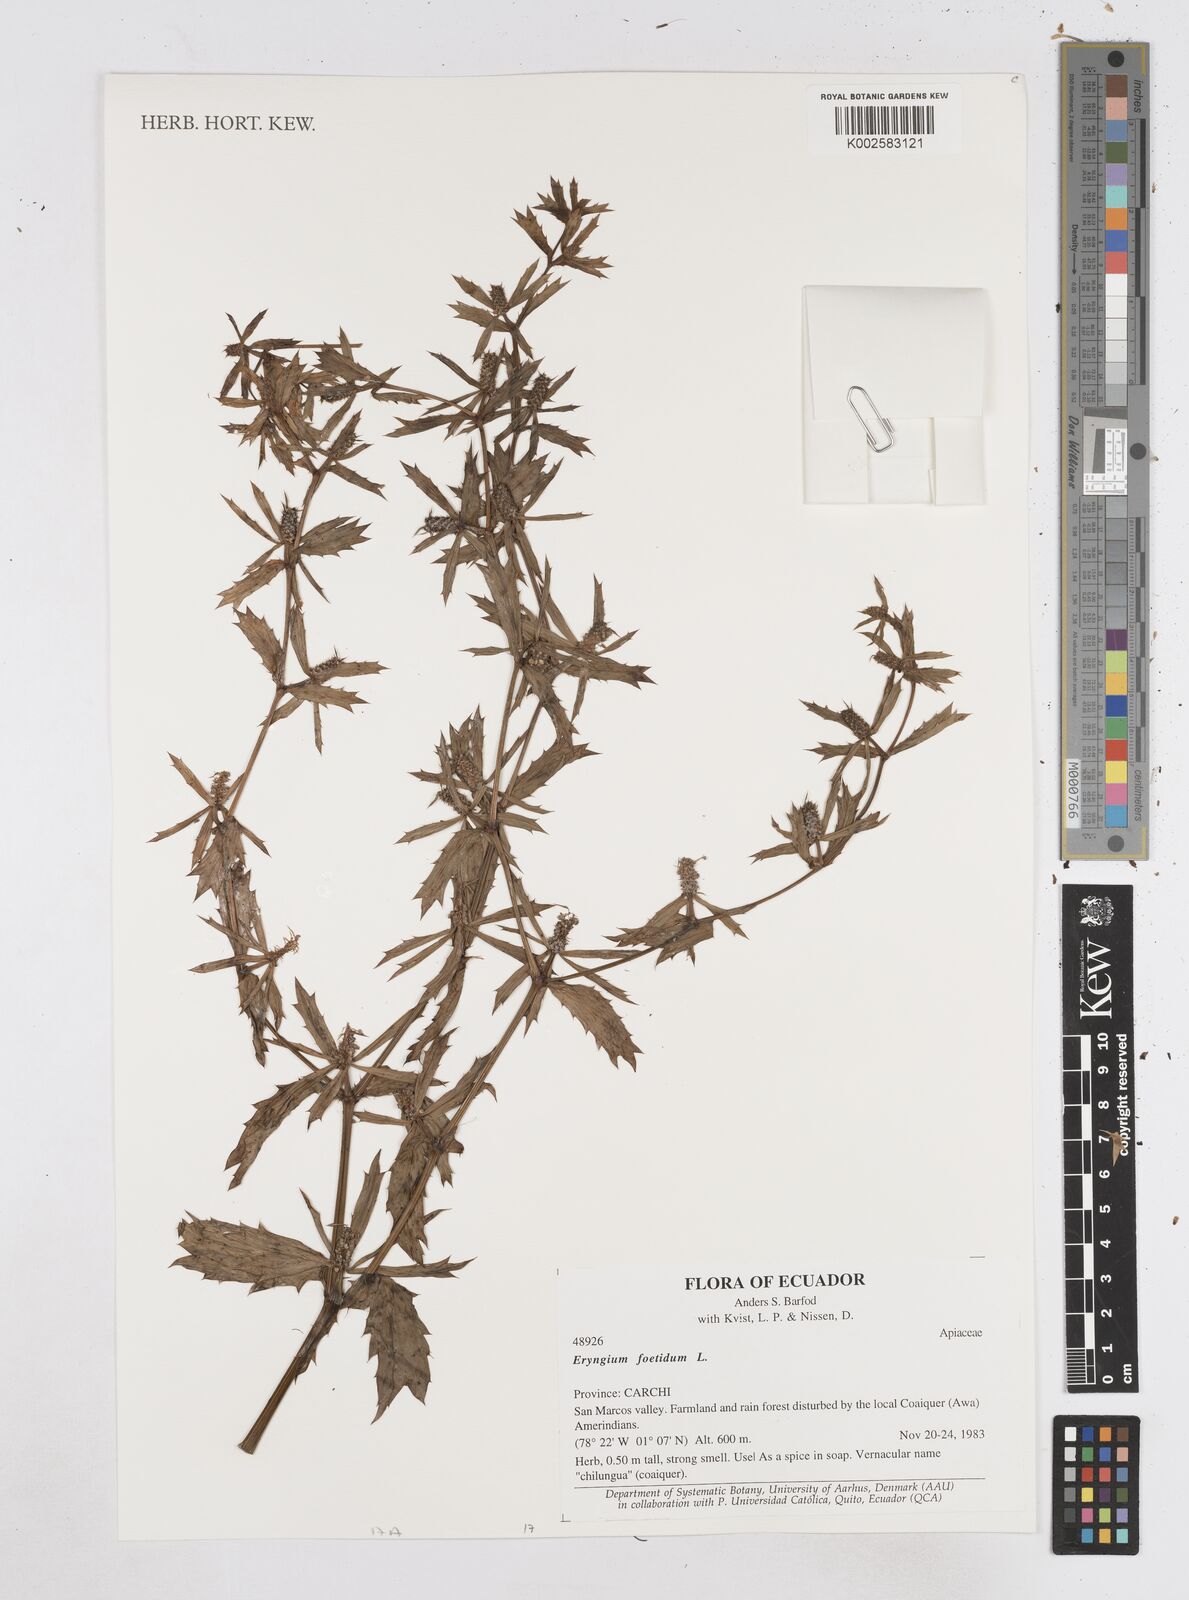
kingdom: Plantae
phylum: Tracheophyta
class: Magnoliopsida
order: Apiales
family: Apiaceae
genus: Eryngium
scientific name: Eryngium foetidum
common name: Fitweed
